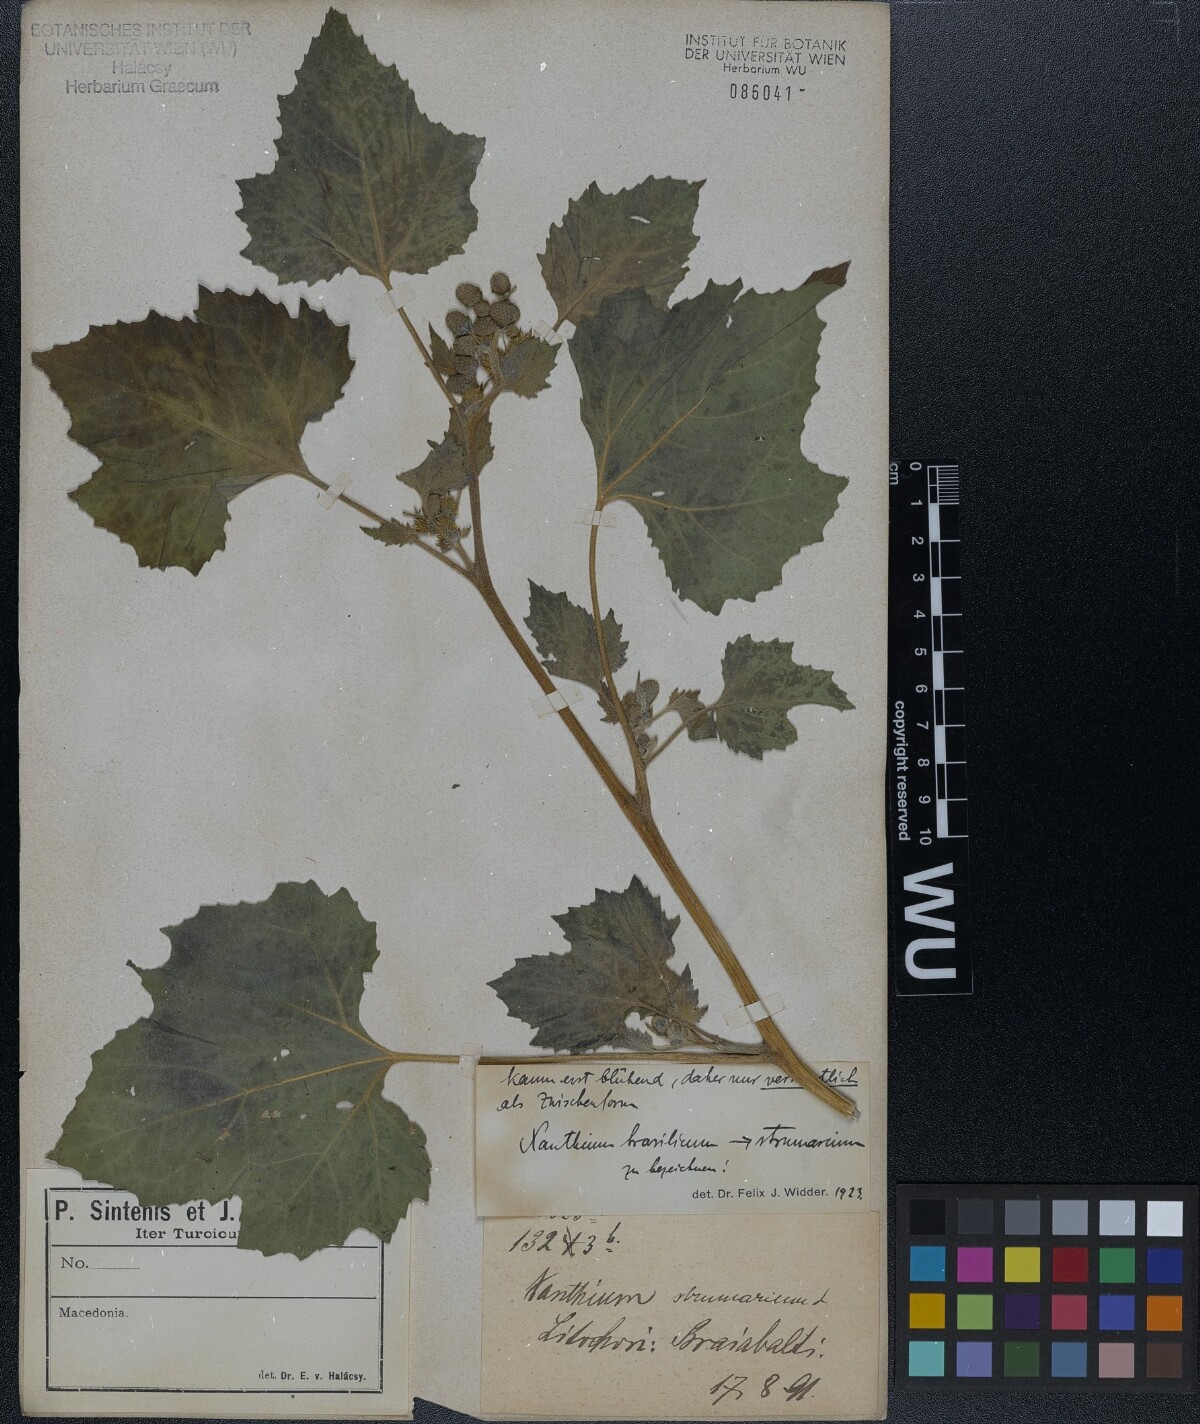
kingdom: Plantae
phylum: Tracheophyta
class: Magnoliopsida
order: Asterales
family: Asteraceae
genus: Xanthium
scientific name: Xanthium
